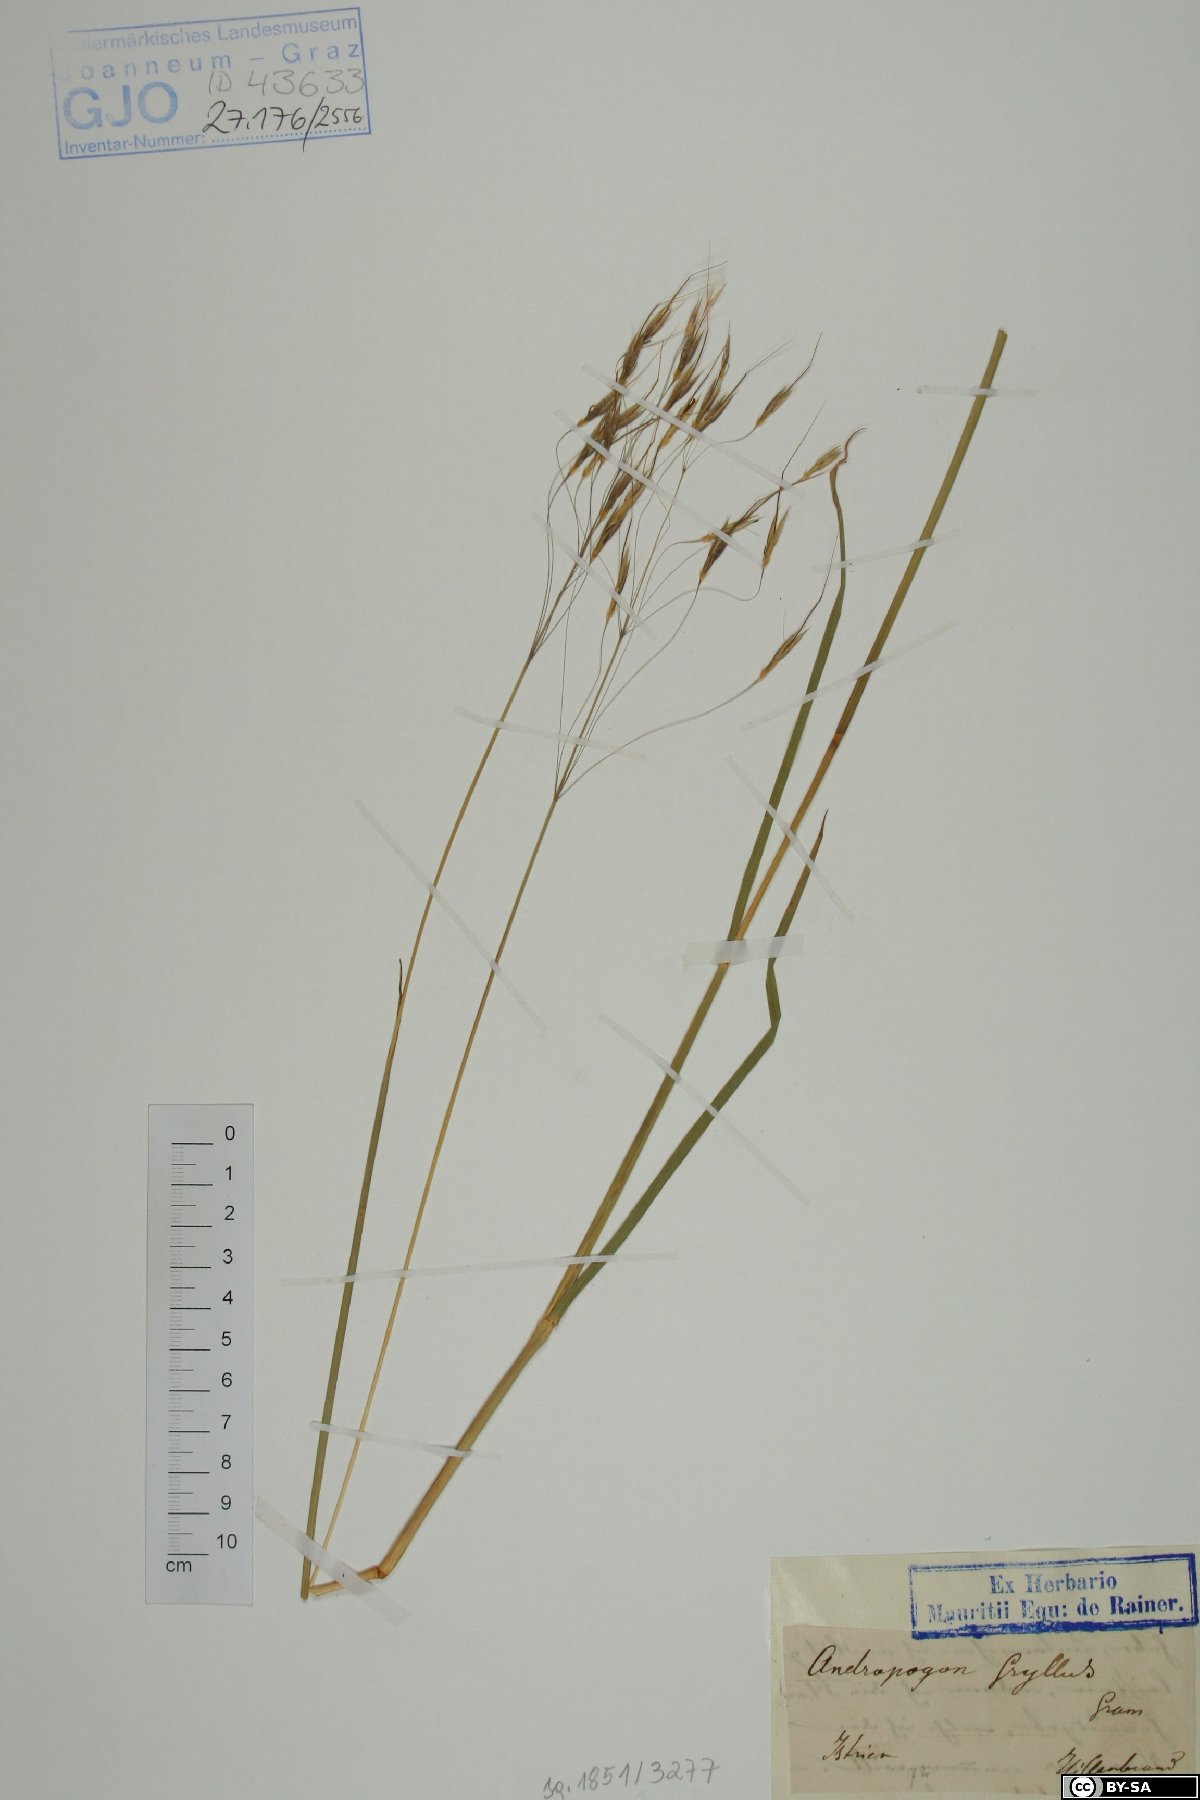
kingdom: Plantae
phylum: Tracheophyta
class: Liliopsida
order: Poales
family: Poaceae
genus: Chrysopogon
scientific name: Chrysopogon gryllus
